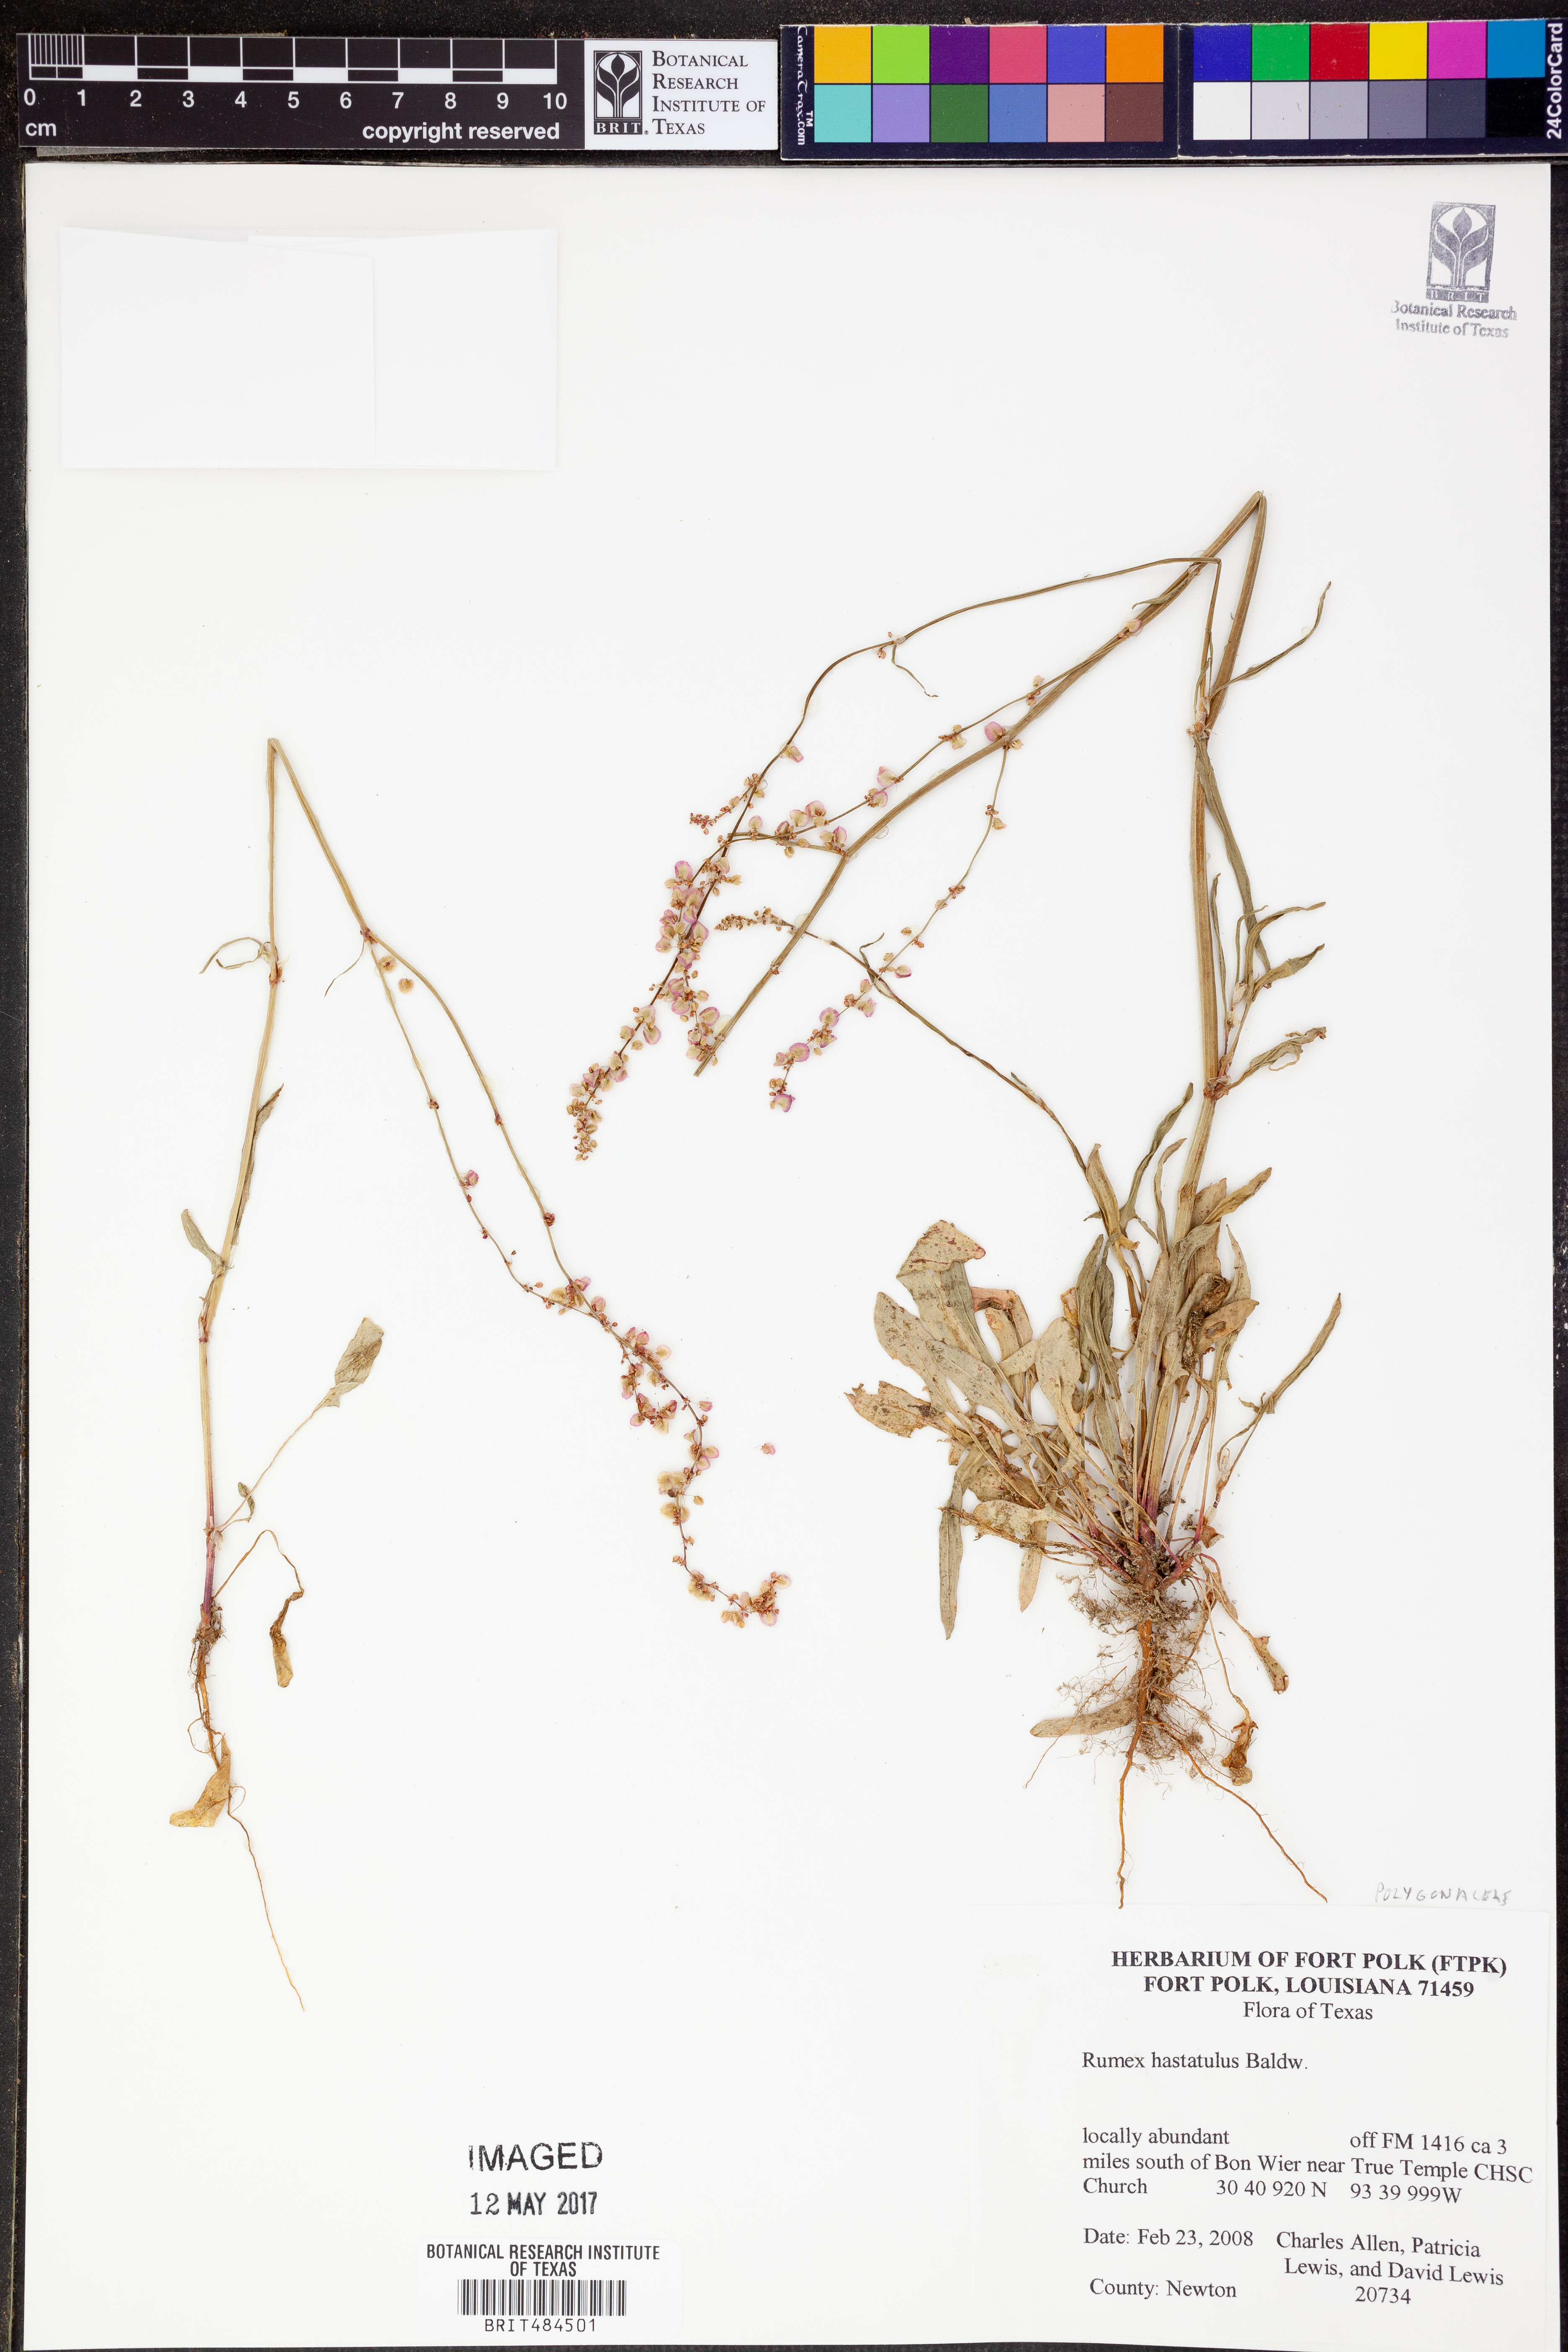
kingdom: Plantae
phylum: Tracheophyta
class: Magnoliopsida
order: Caryophyllales
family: Polygonaceae
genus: Rumex
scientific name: Rumex hastatulus
